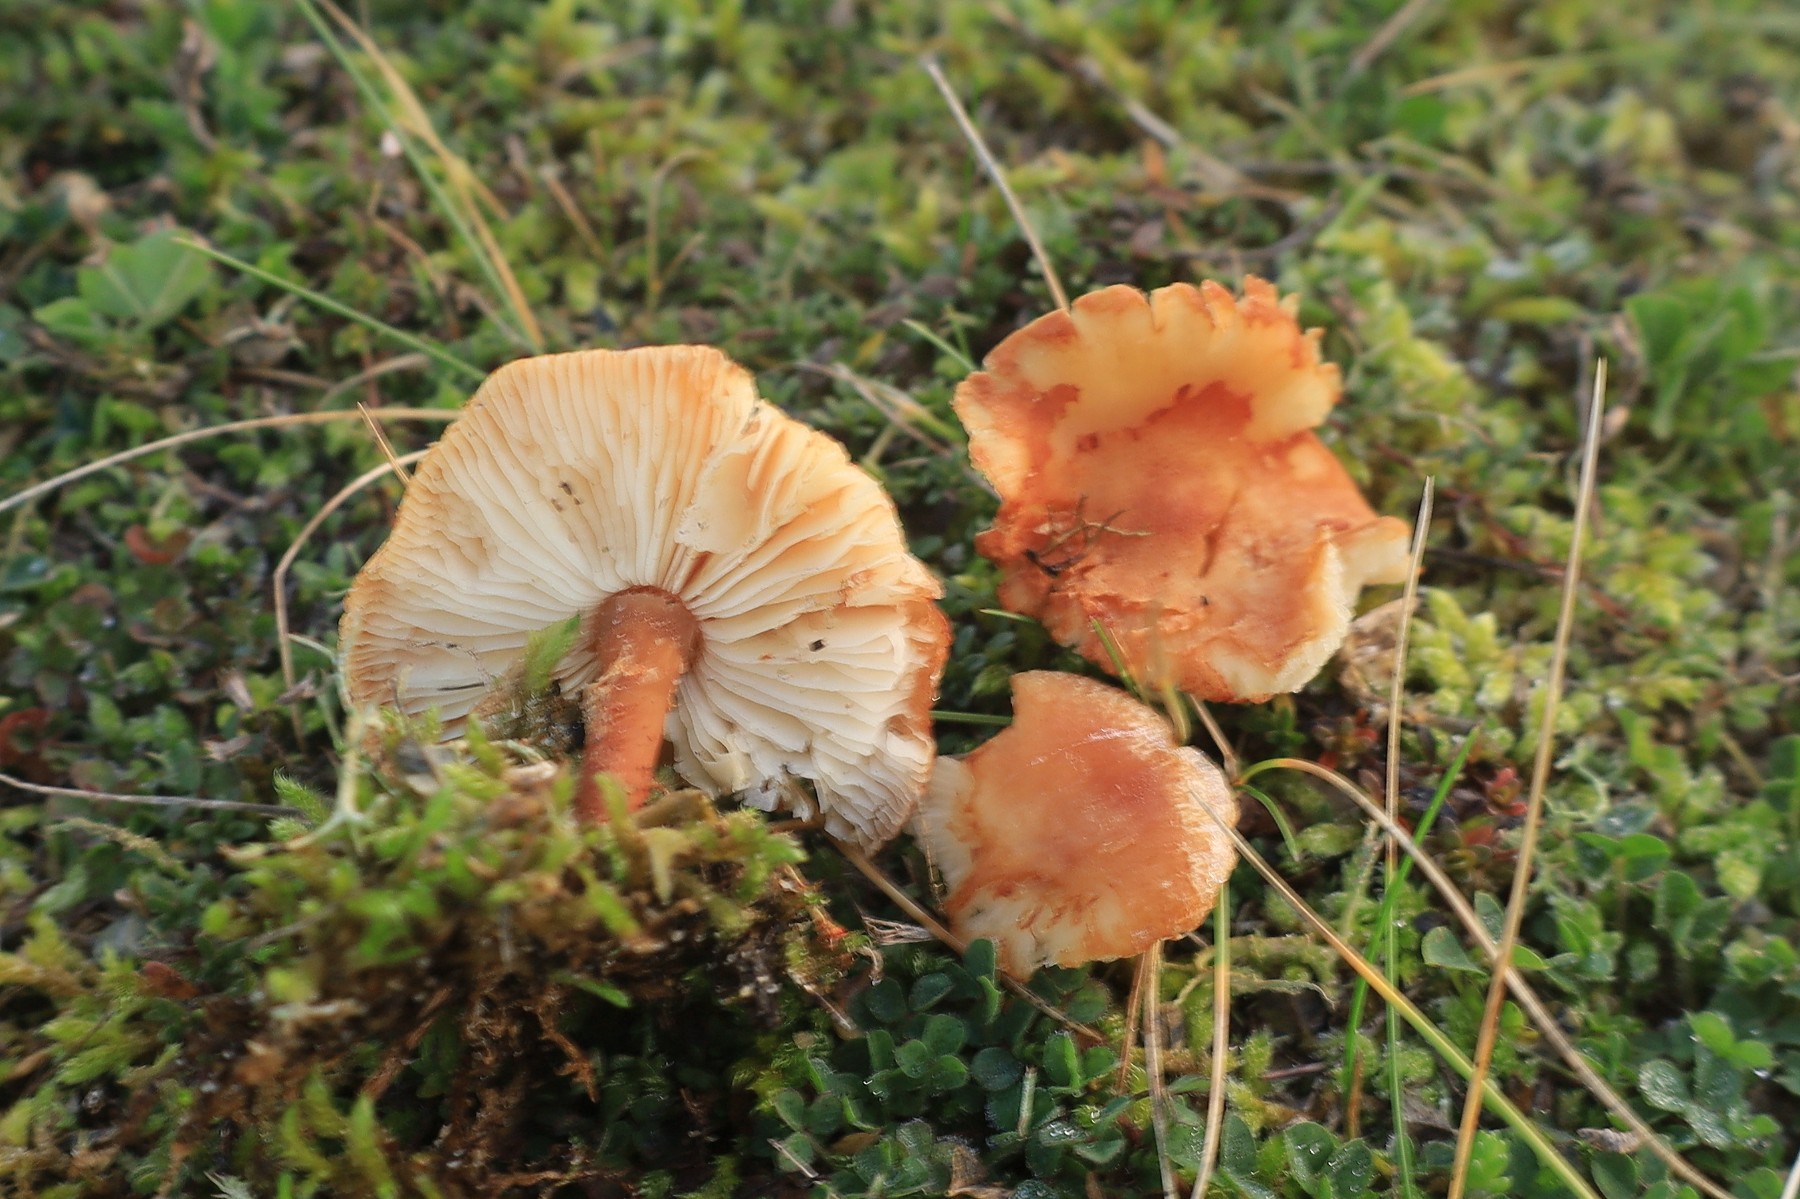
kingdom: Fungi
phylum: Basidiomycota
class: Agaricomycetes
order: Agaricales
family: Agaricaceae
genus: Cystodermella
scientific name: Cystodermella granulosa
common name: kliddet grynhat
